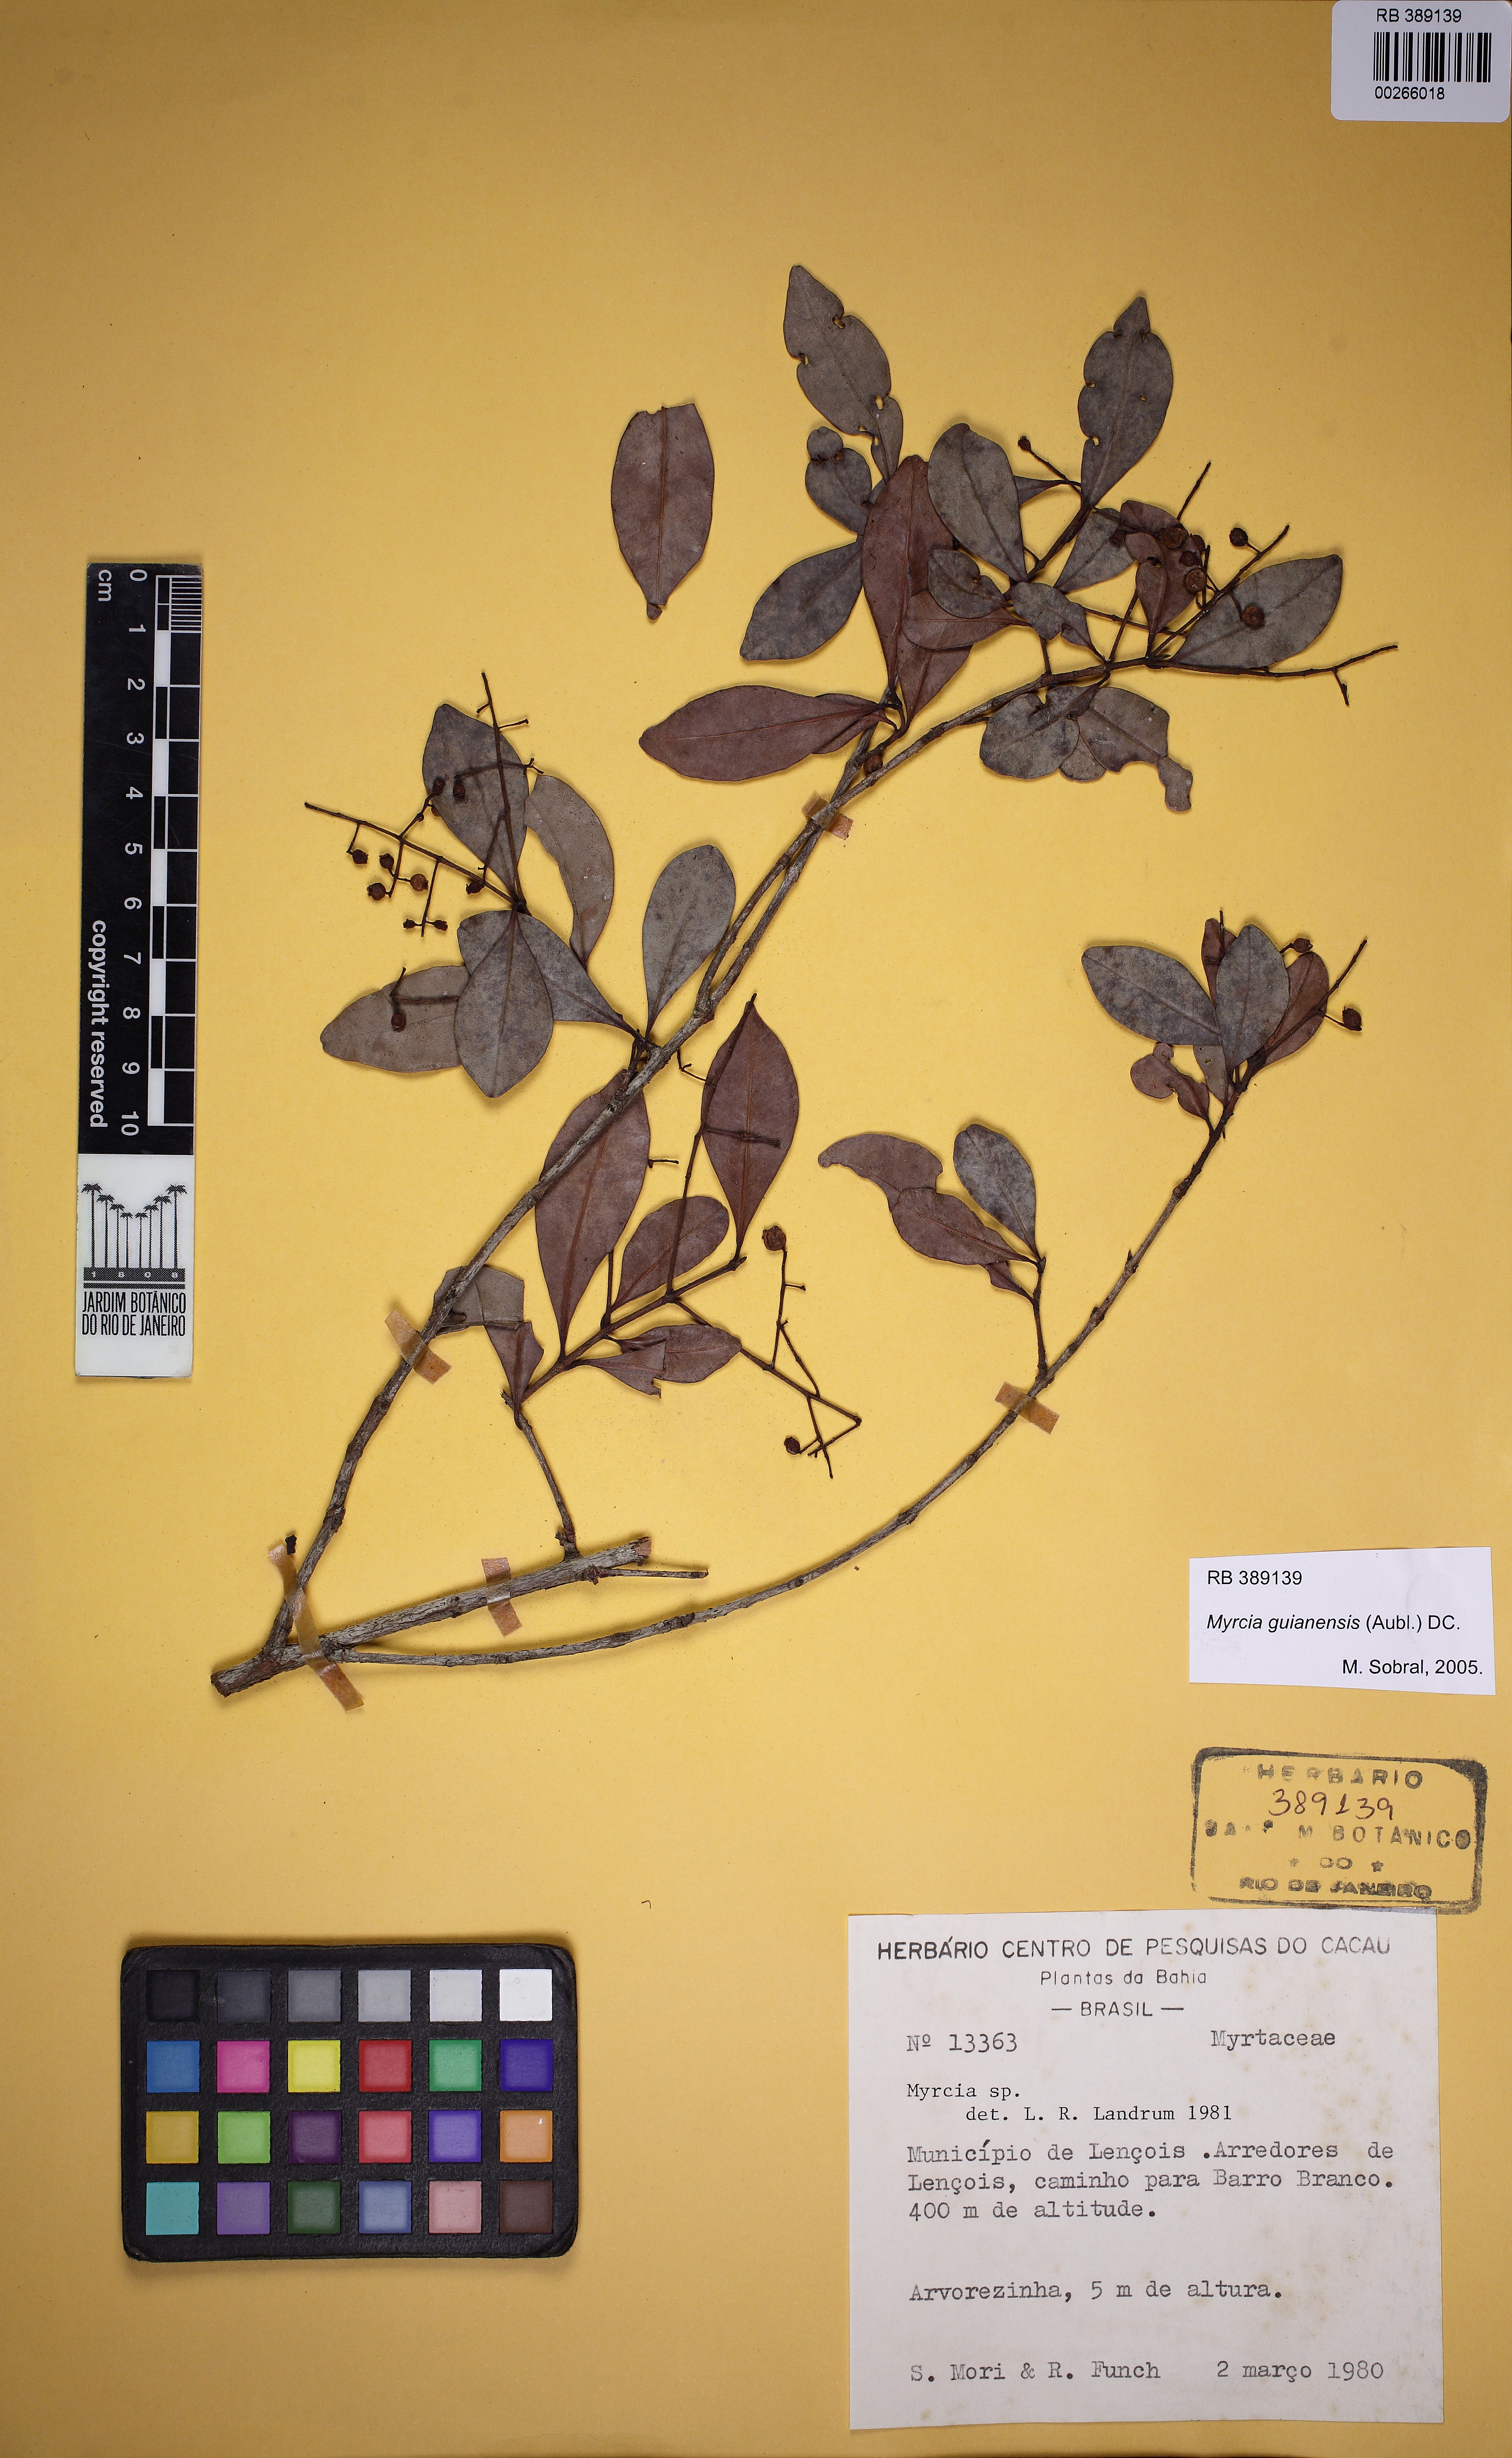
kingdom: Plantae
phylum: Tracheophyta
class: Magnoliopsida
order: Myrtales
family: Myrtaceae
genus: Myrcia
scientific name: Myrcia guianensis
